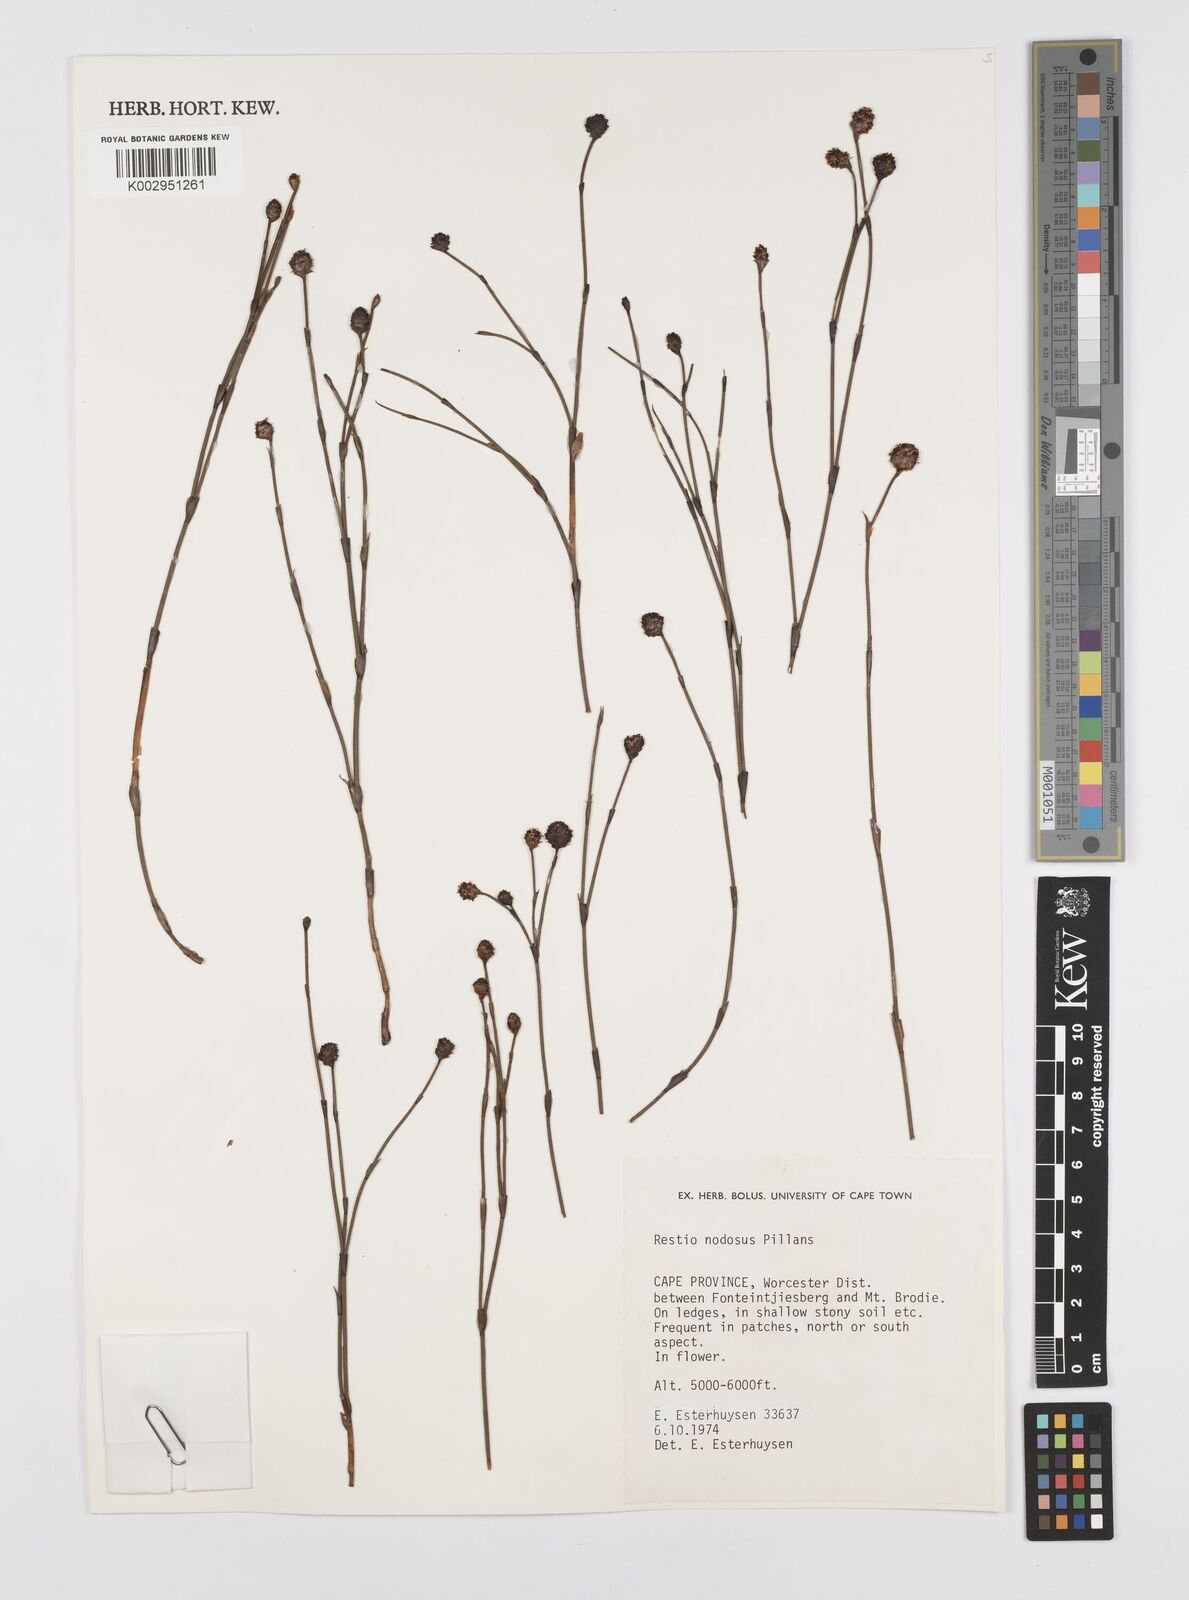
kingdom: Plantae
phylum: Tracheophyta
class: Liliopsida
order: Poales
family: Restionaceae
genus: Restio
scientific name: Restio nodosus
